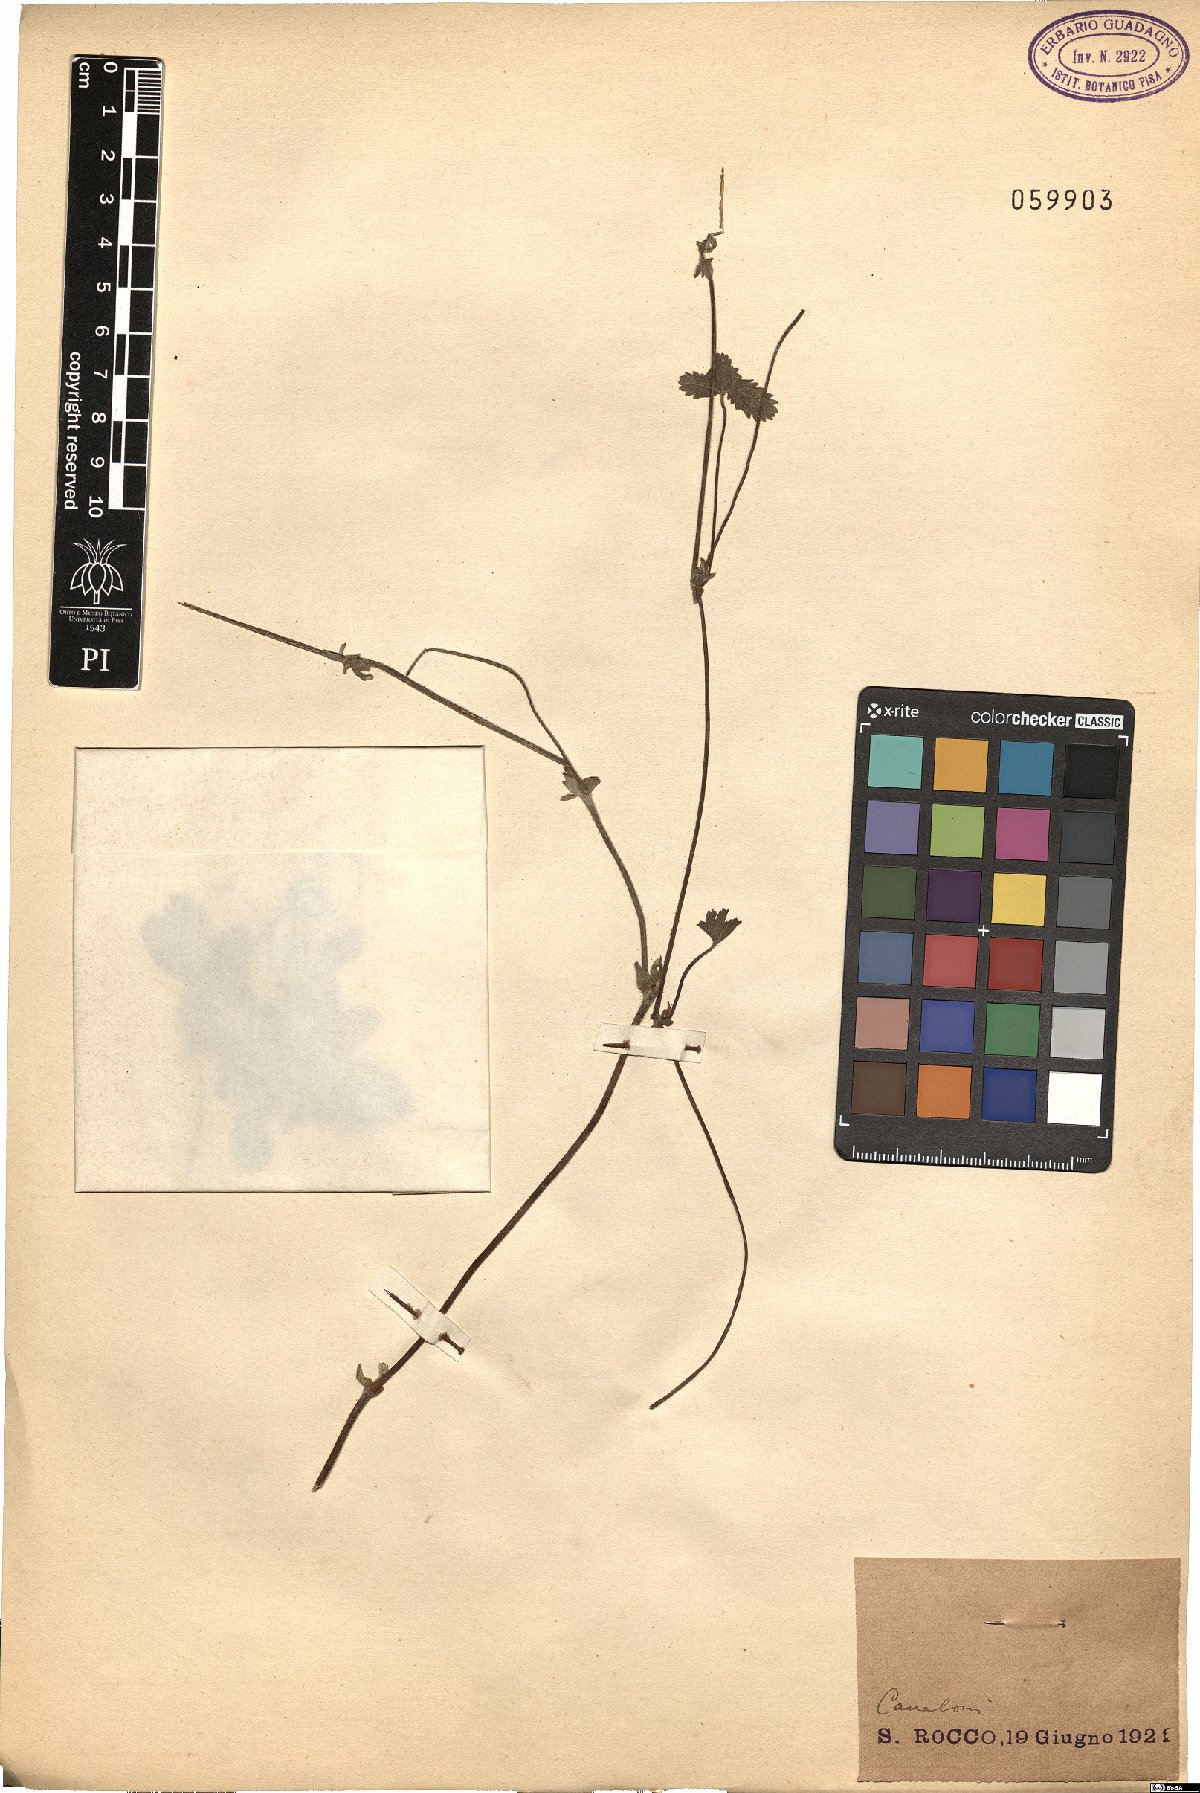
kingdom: Plantae
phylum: Tracheophyta
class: Magnoliopsida
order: Rosales
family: Rosaceae
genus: Potentilla
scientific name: Potentilla
